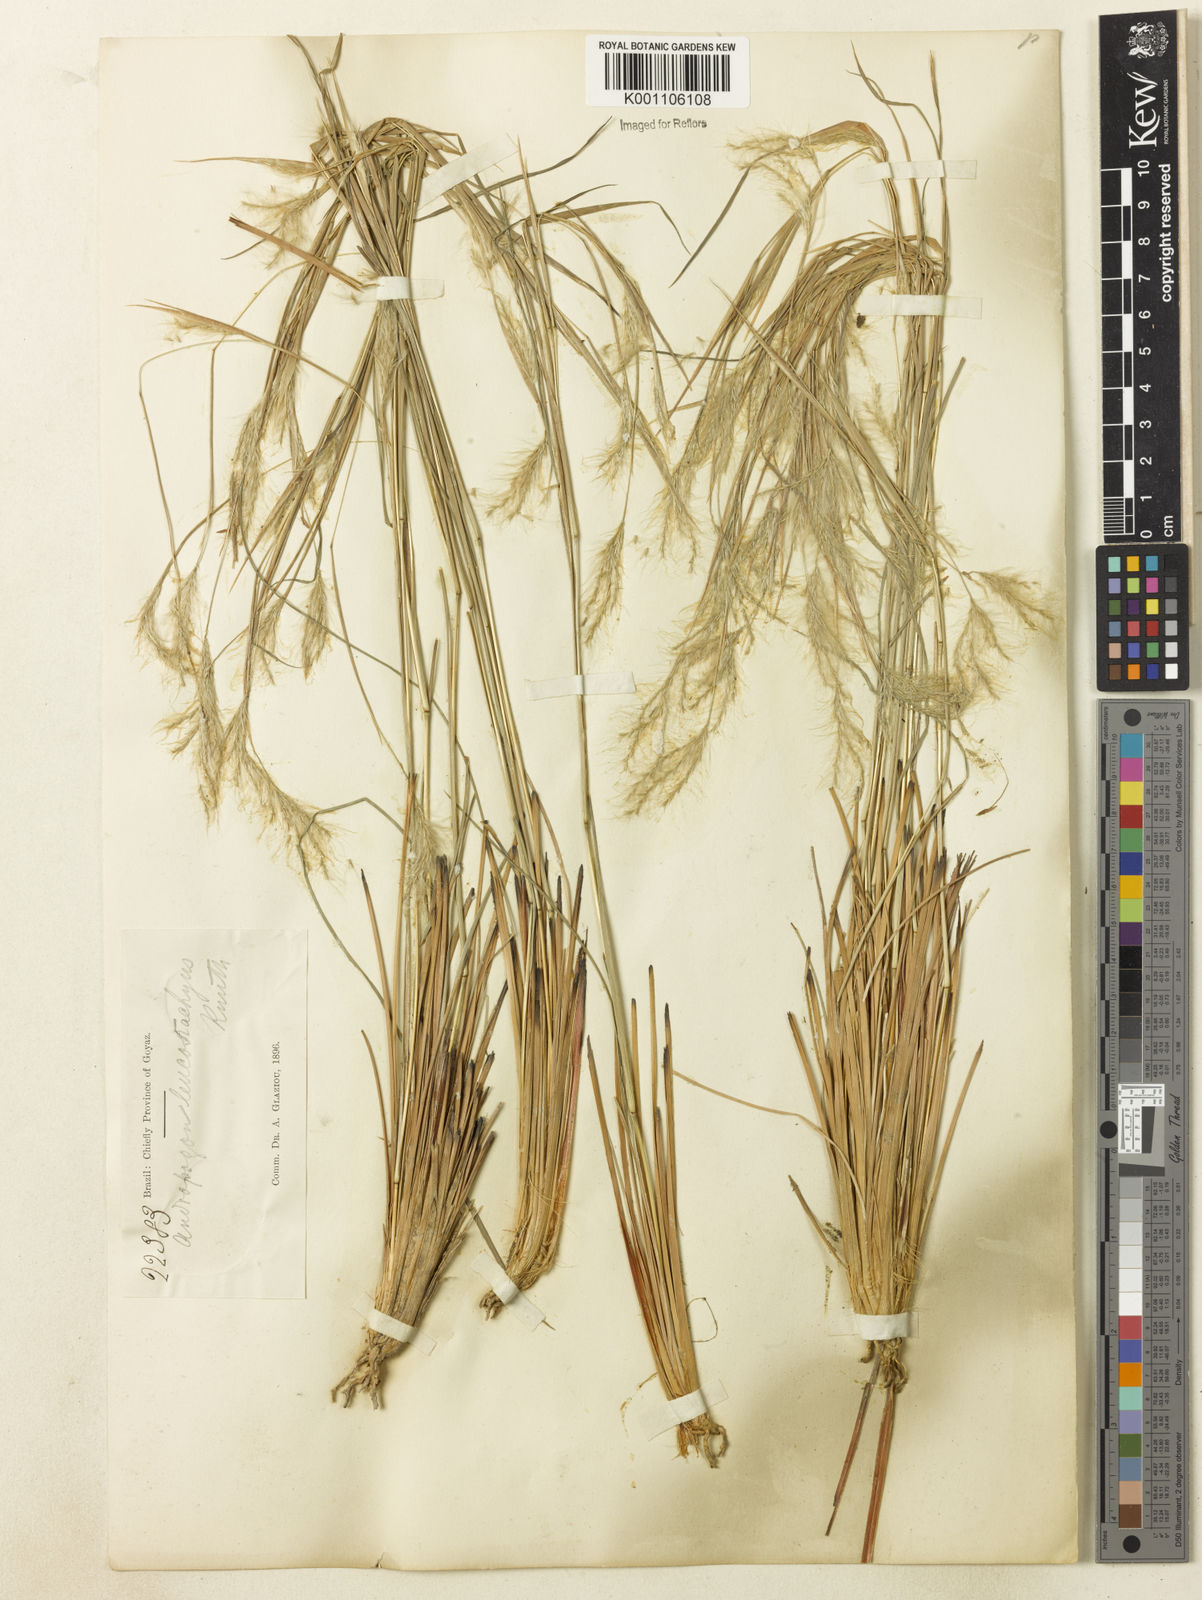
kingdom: Plantae
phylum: Tracheophyta
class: Liliopsida
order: Poales
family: Poaceae
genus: Andropogon
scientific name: Andropogon leucostachyus
